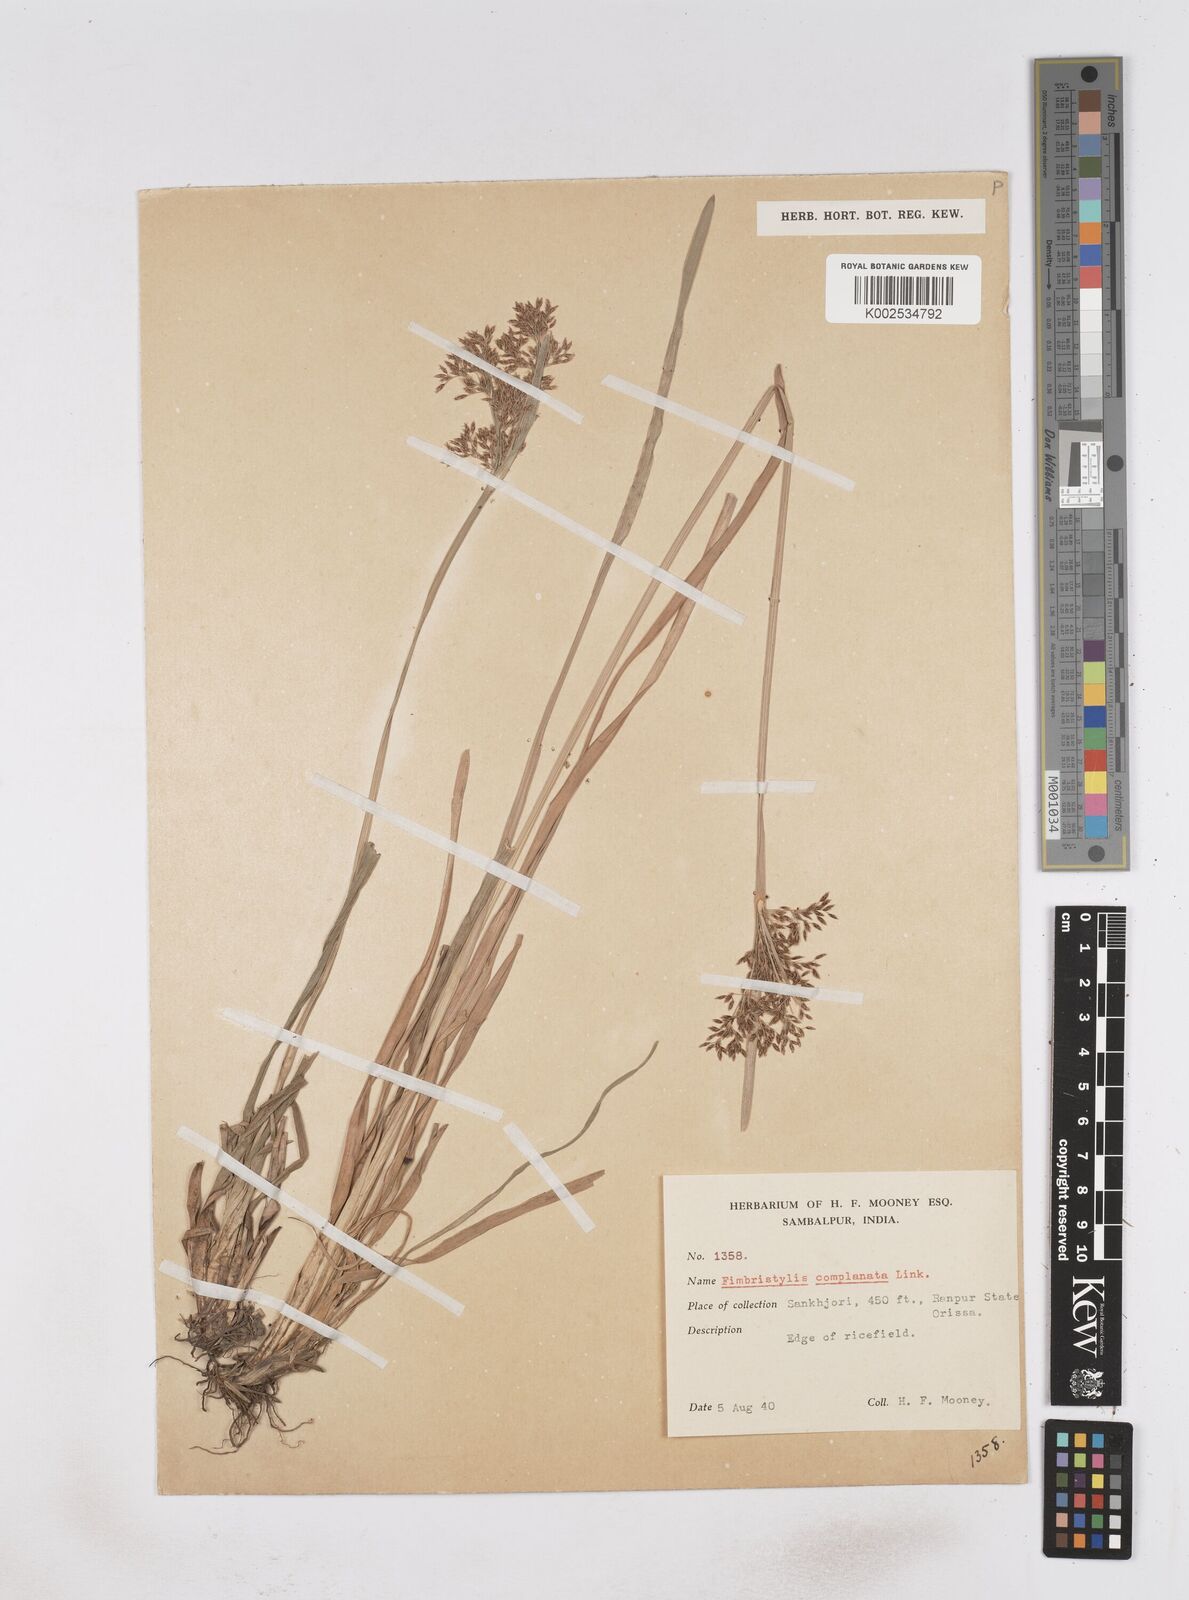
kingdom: Plantae
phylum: Tracheophyta
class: Liliopsida
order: Poales
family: Cyperaceae
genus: Fimbristylis
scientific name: Fimbristylis complanata
